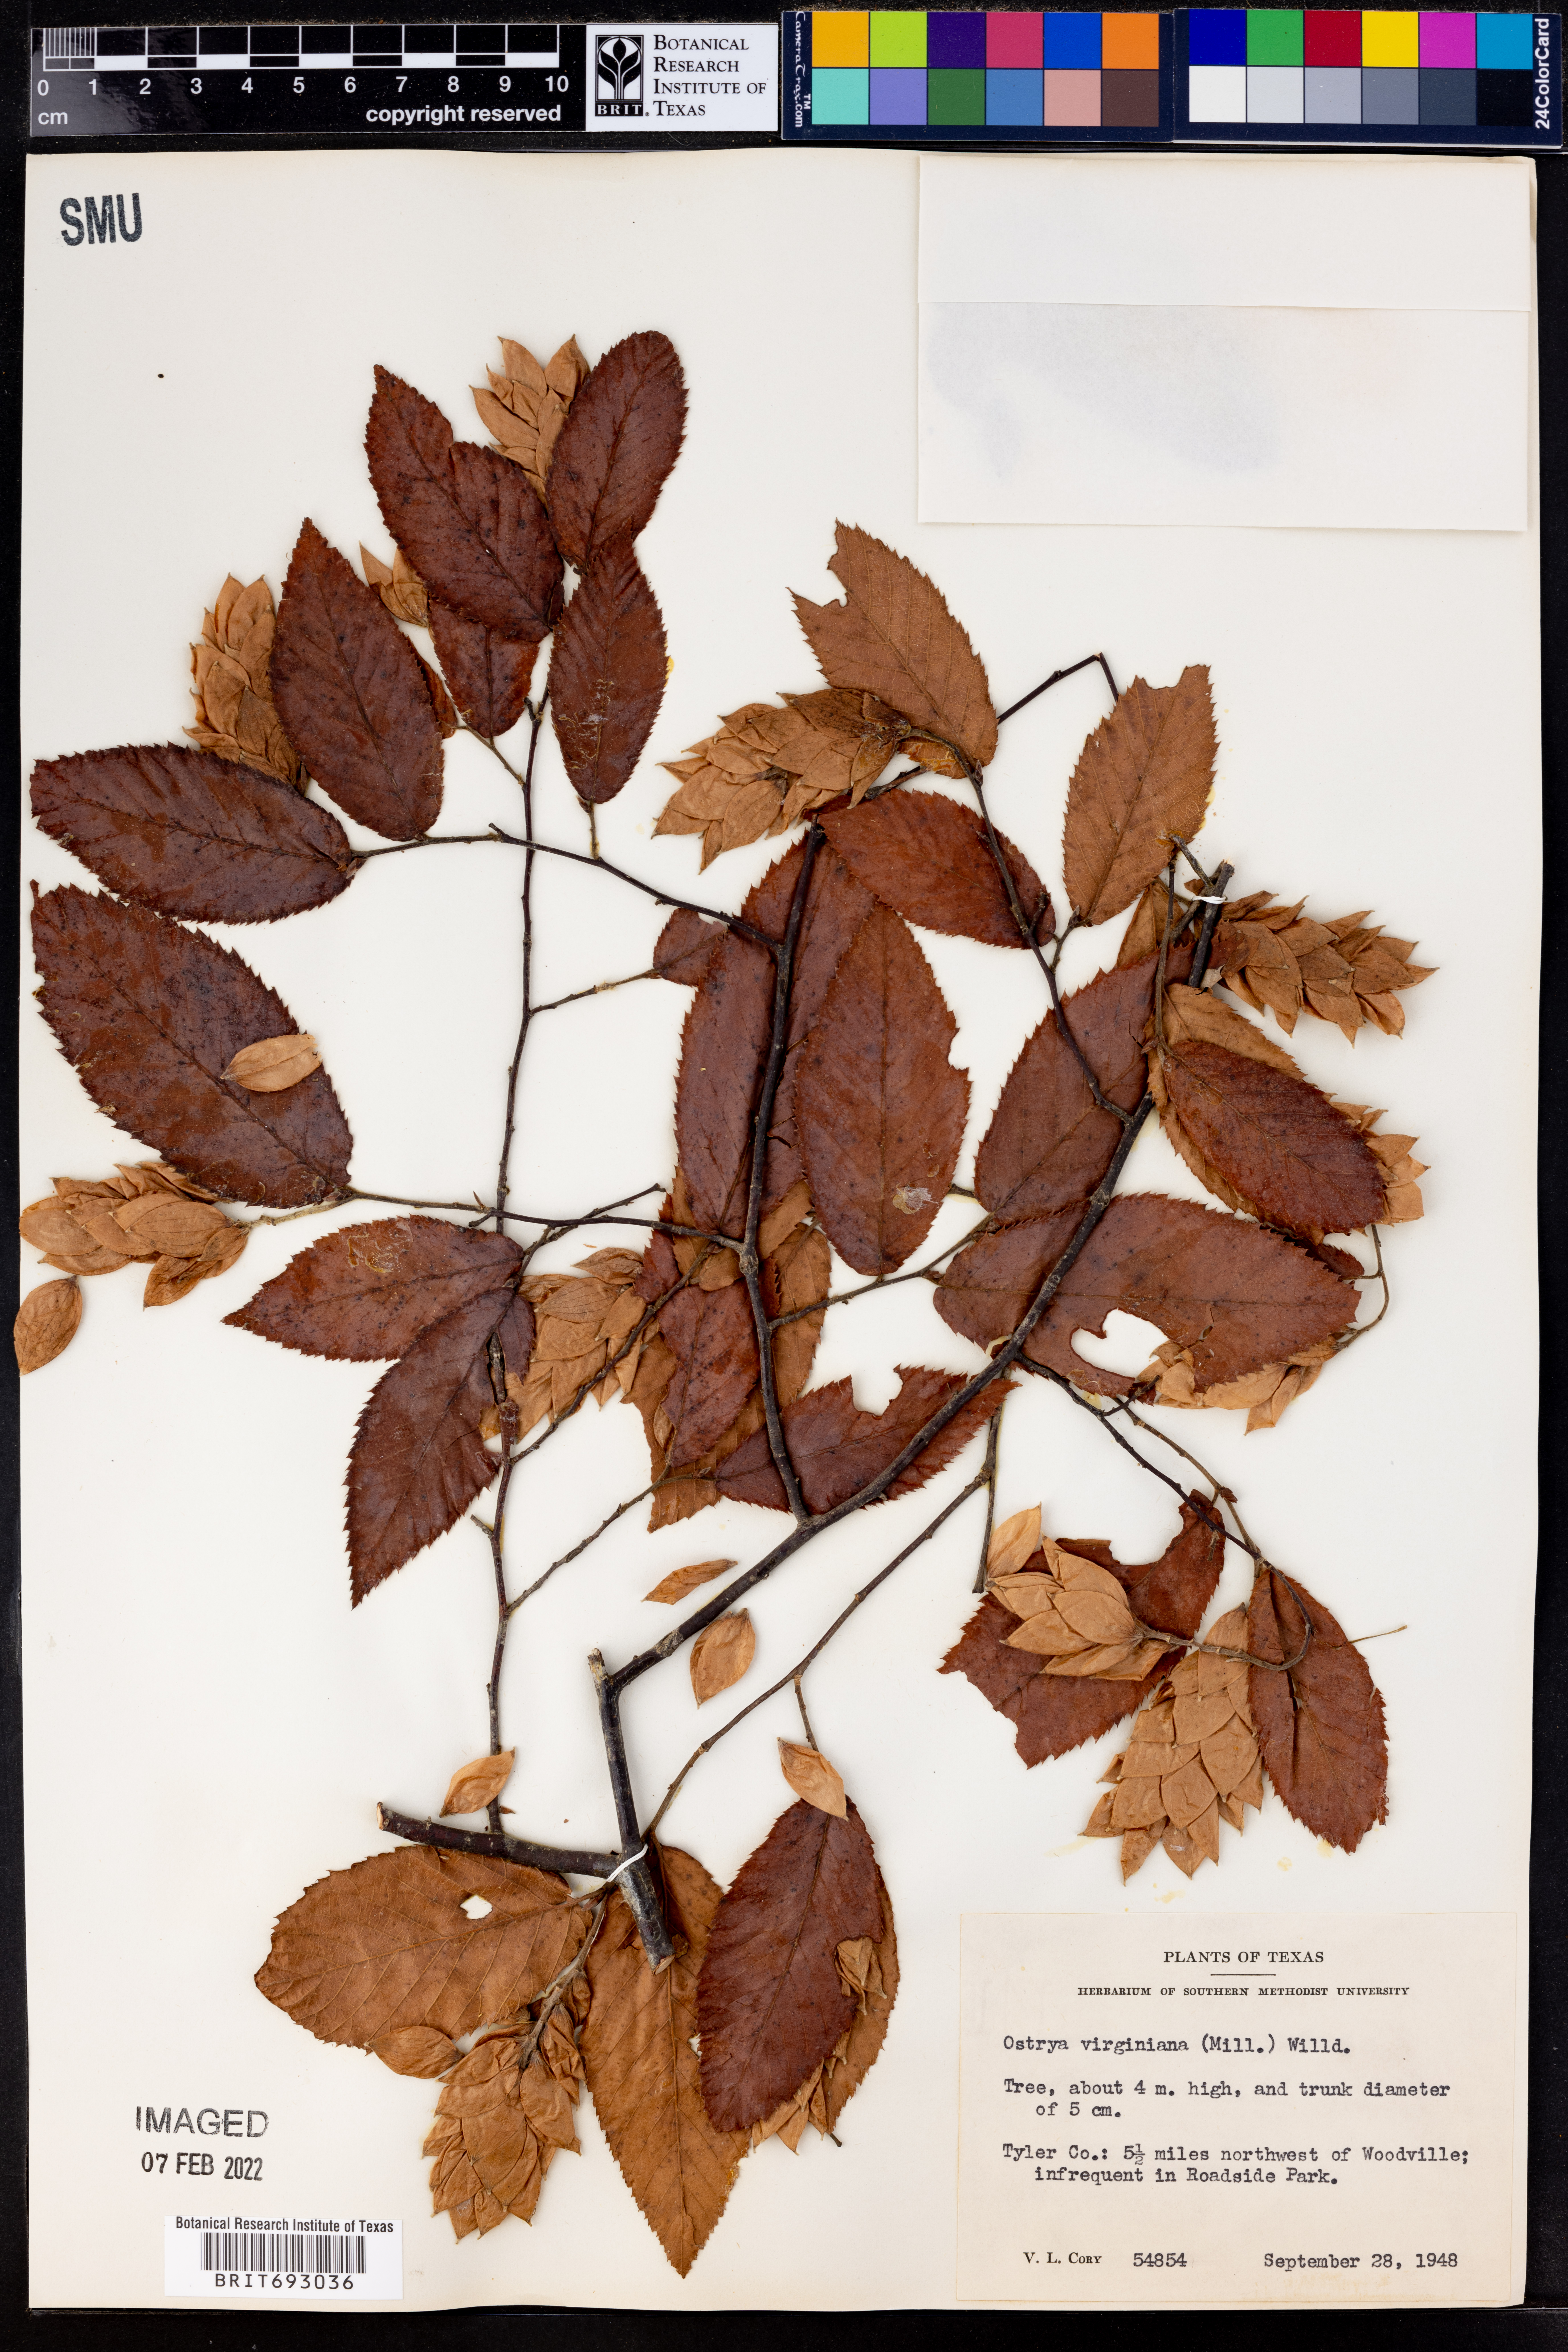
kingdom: Plantae
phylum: Tracheophyta
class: Magnoliopsida
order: Fagales
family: Betulaceae
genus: Ostrya
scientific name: Ostrya virginiana
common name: Ironwood
